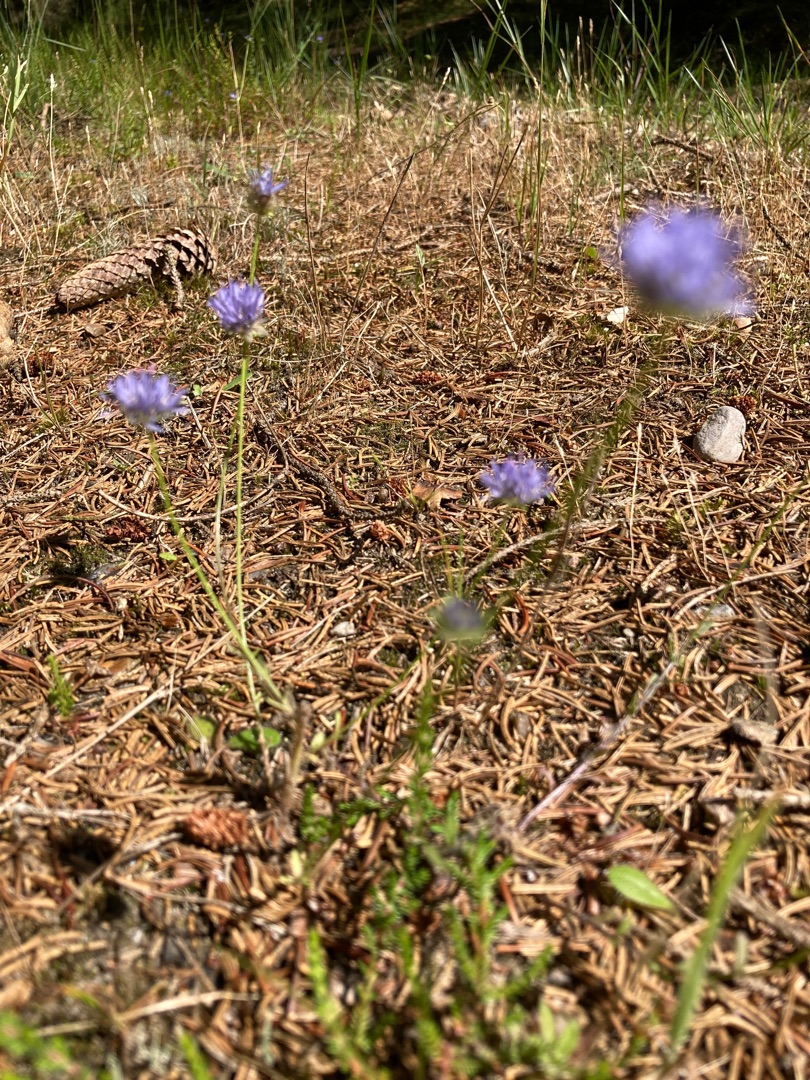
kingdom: Plantae
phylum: Tracheophyta
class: Magnoliopsida
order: Asterales
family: Campanulaceae
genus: Jasione
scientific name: Jasione montana
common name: Blåmunke
